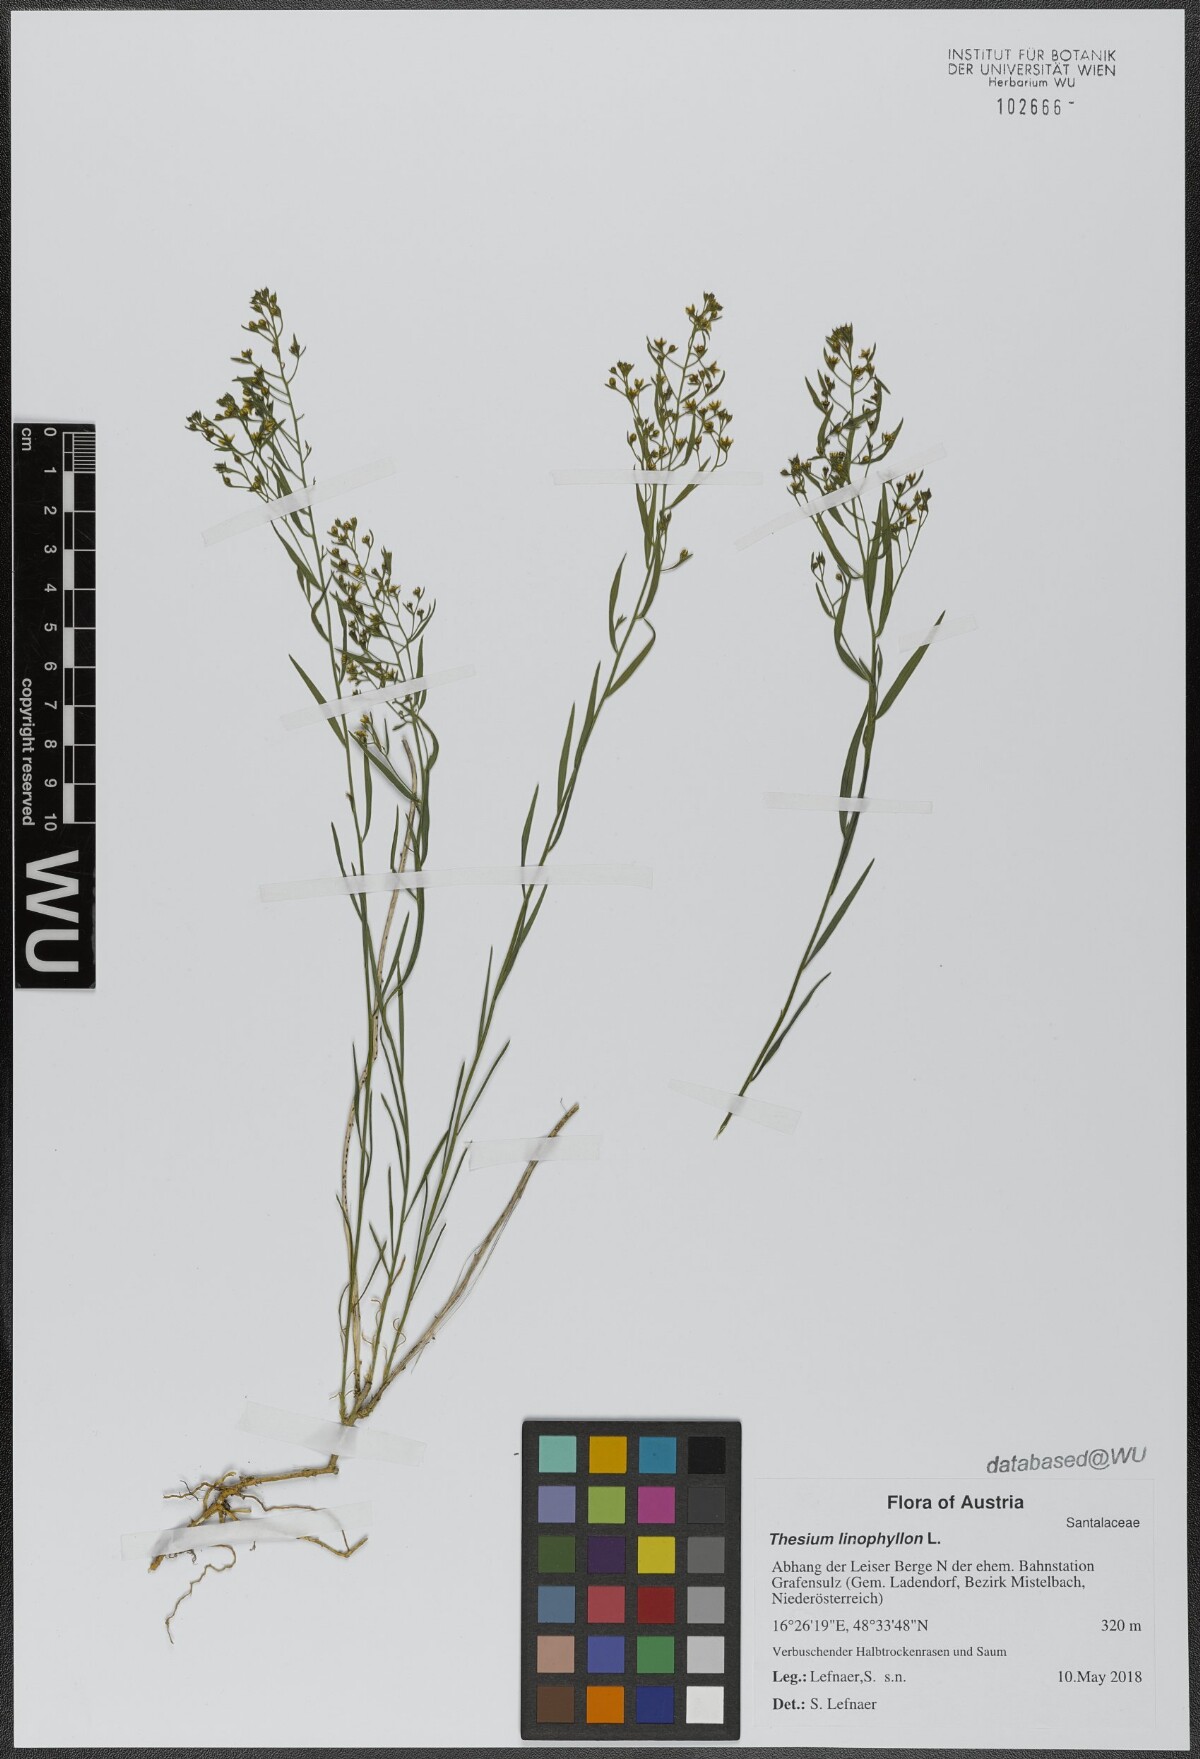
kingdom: Plantae
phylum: Tracheophyta
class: Magnoliopsida
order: Santalales
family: Thesiaceae
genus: Thesium
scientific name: Thesium linophyllon
